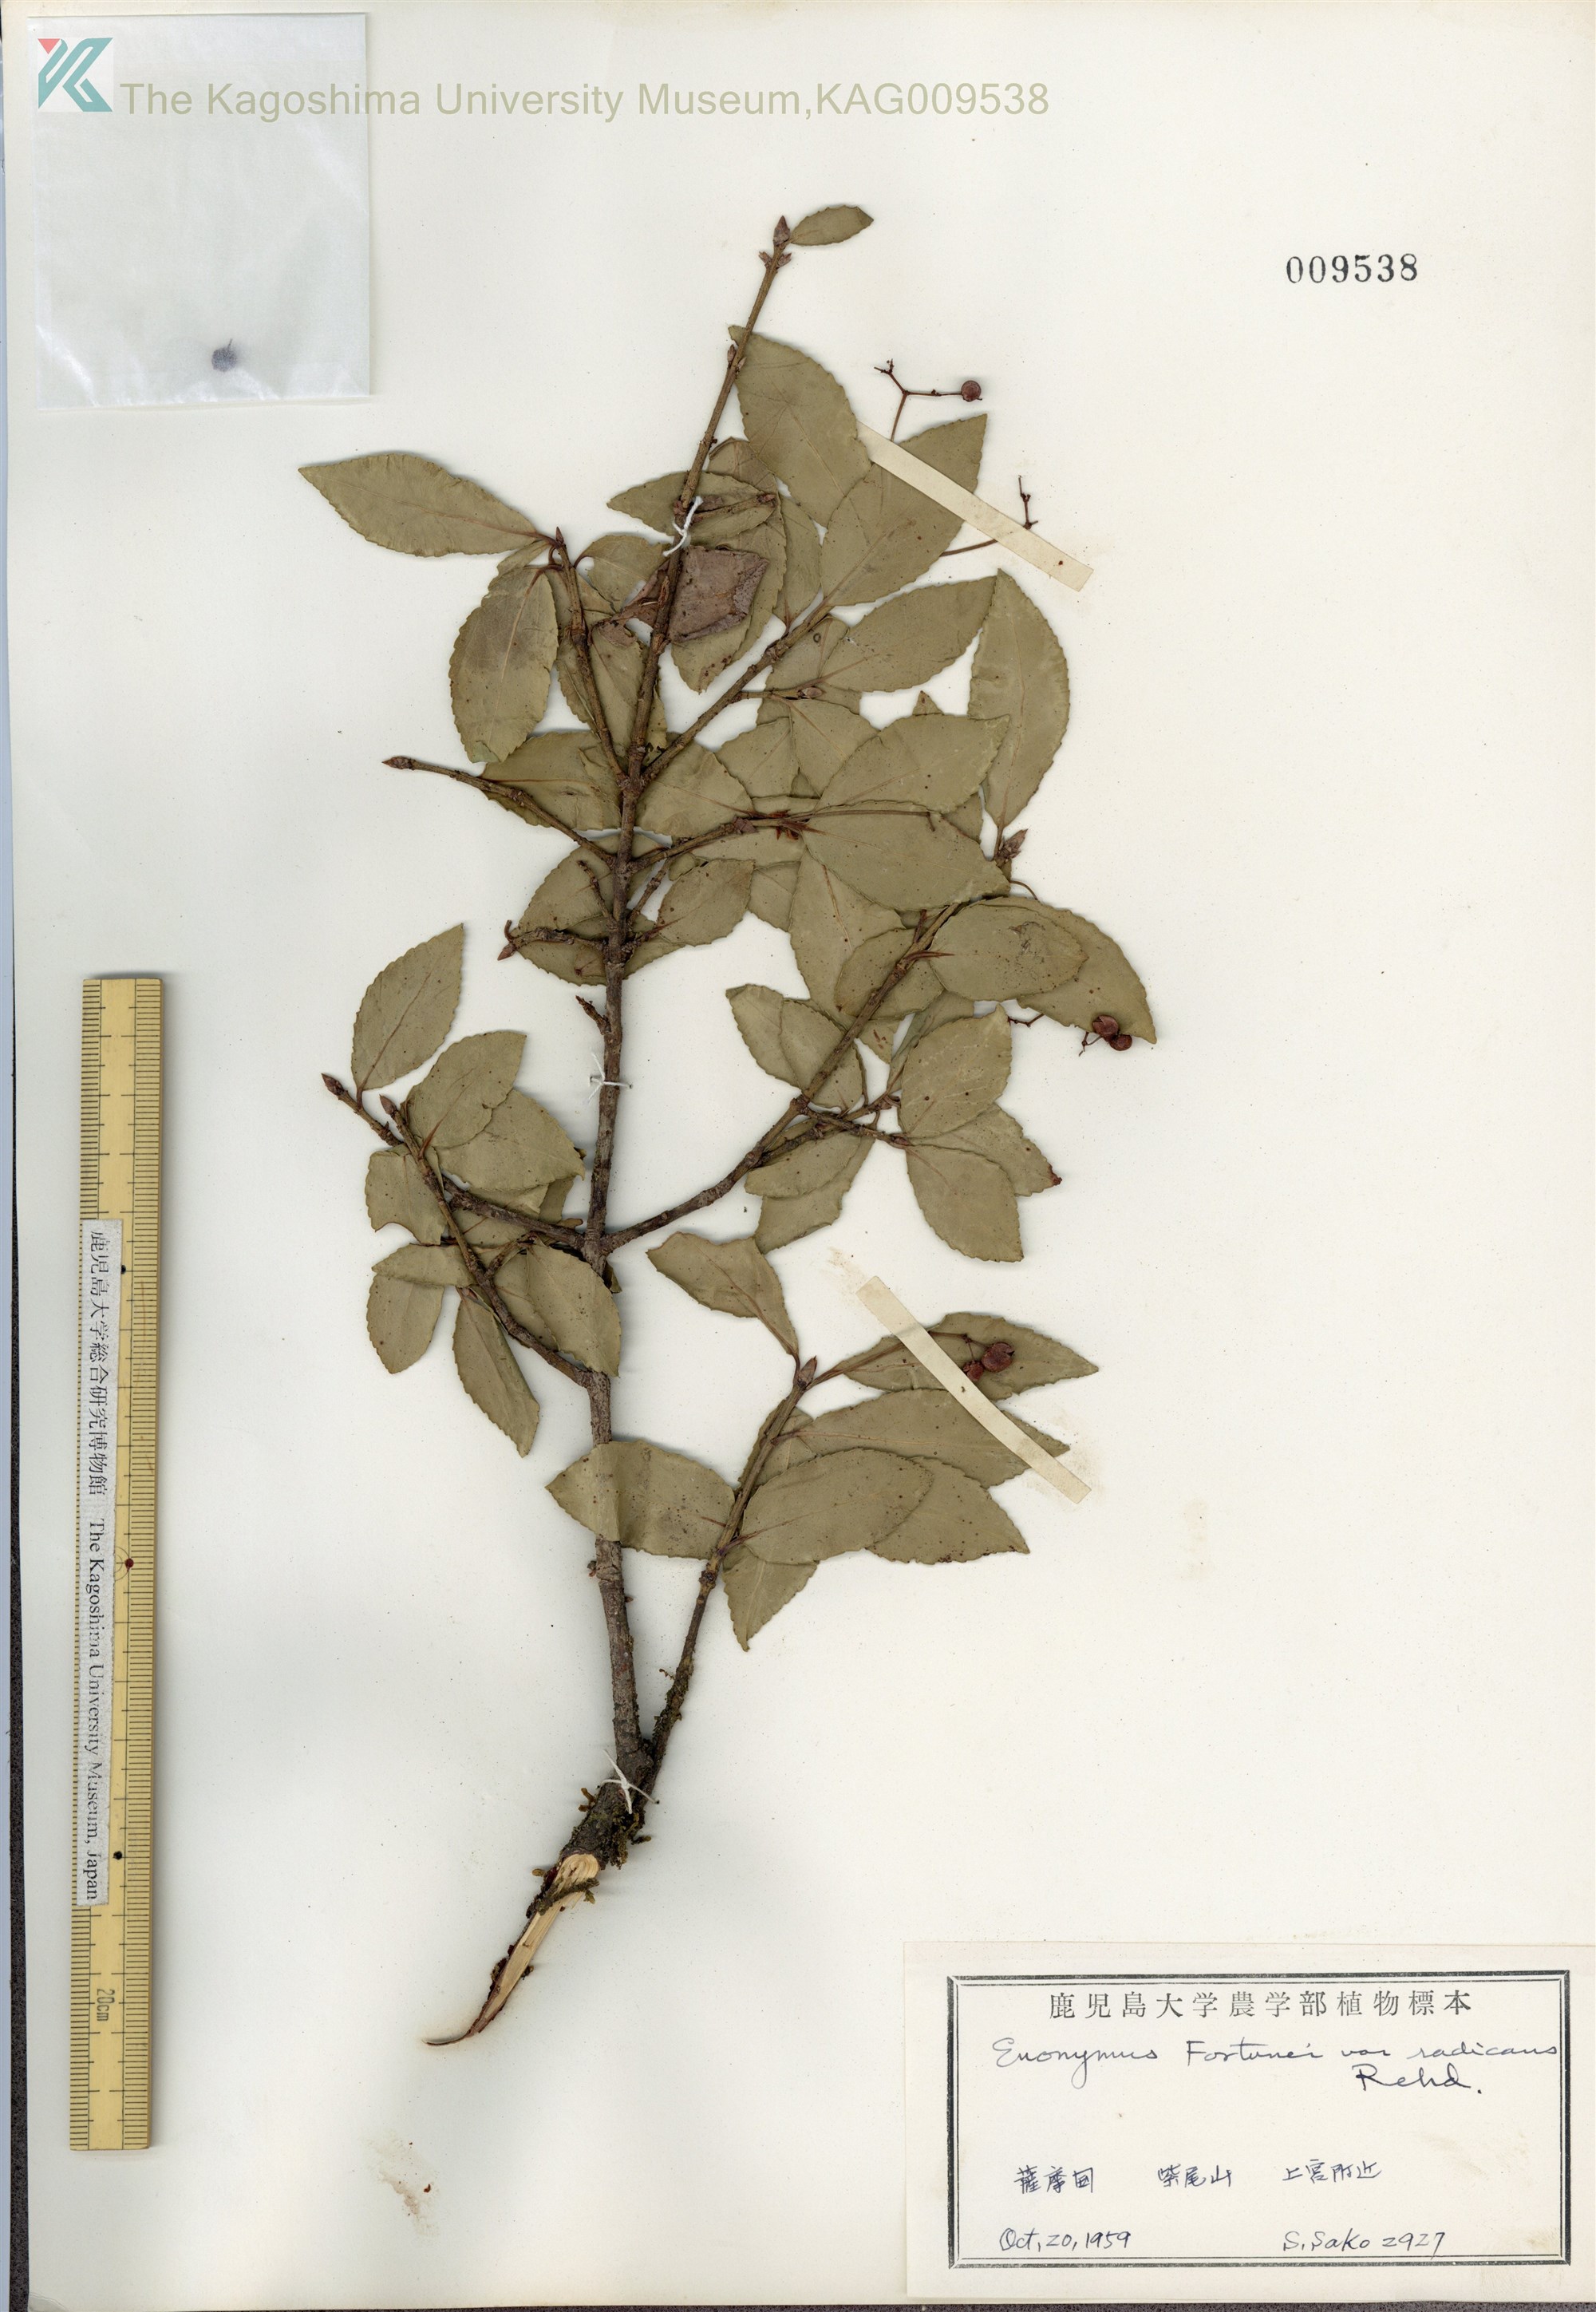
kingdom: Plantae
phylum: Tracheophyta
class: Magnoliopsida
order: Celastrales
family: Celastraceae
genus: Euonymus
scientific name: Euonymus fortunei
